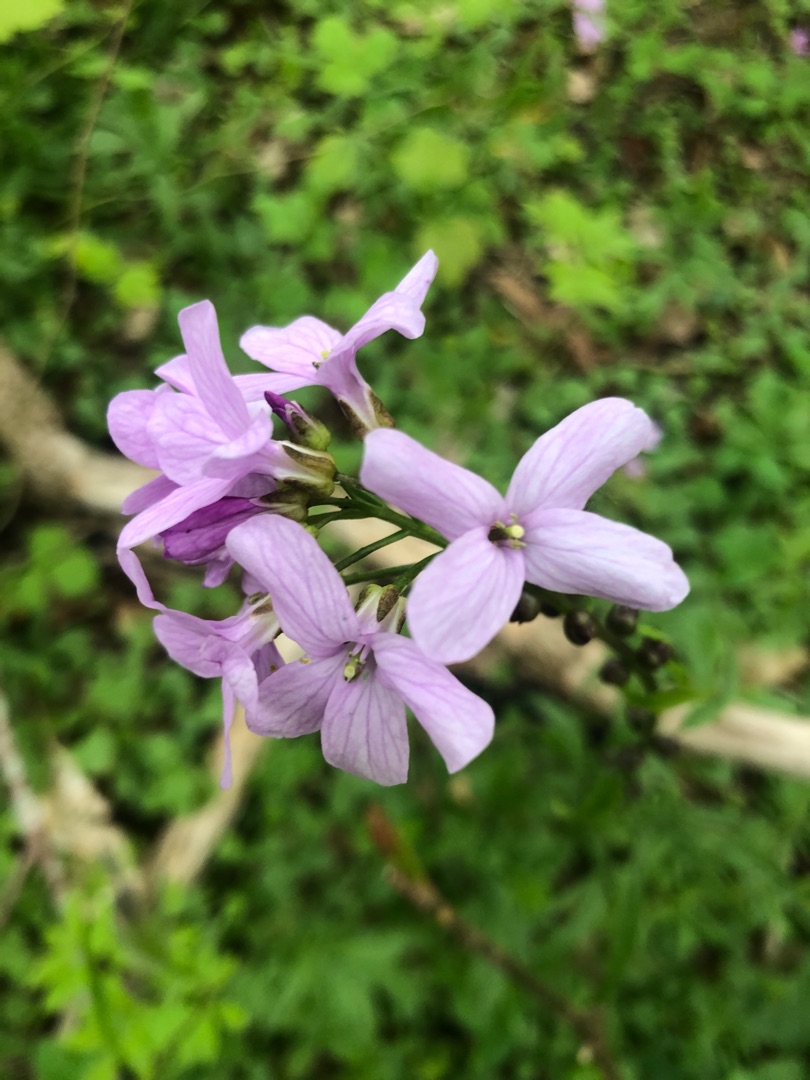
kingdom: Plantae
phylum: Tracheophyta
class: Magnoliopsida
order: Brassicales
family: Brassicaceae
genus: Cardamine
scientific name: Cardamine bulbifera
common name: Tandrod
